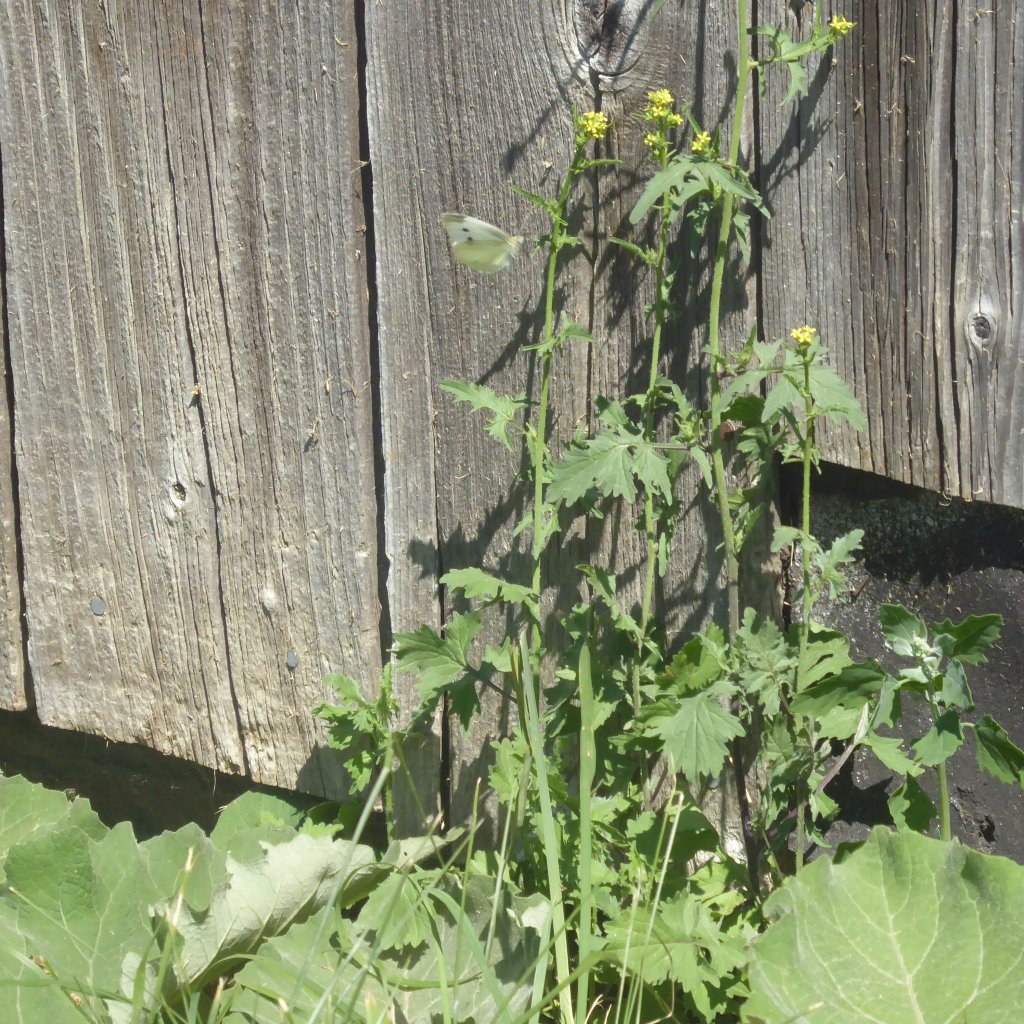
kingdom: Animalia
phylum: Arthropoda
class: Insecta
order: Lepidoptera
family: Pieridae
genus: Pieris
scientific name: Pieris rapae
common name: Cabbage White
